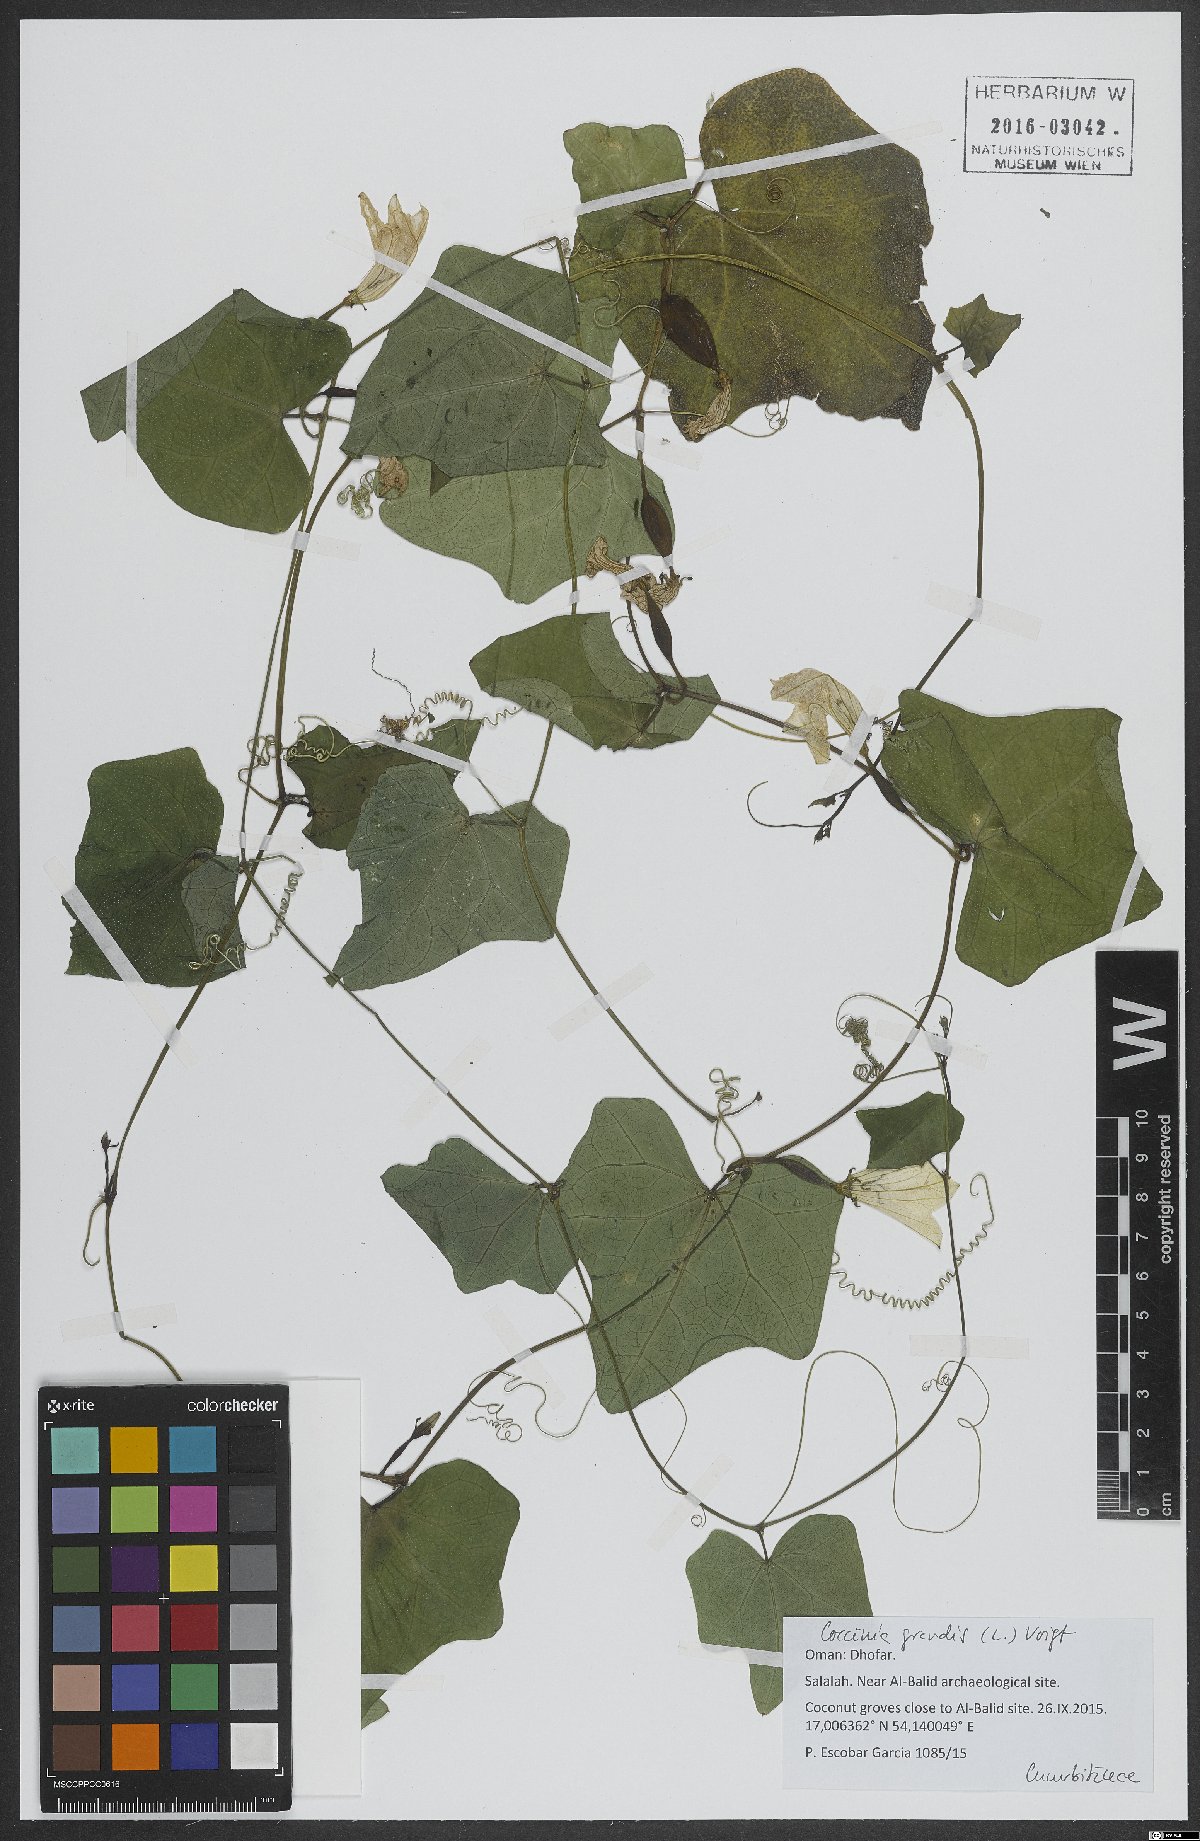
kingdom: Plantae
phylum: Tracheophyta
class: Magnoliopsida
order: Cucurbitales
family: Cucurbitaceae
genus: Coccinia
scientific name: Coccinia grandis
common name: Ivy gourd
